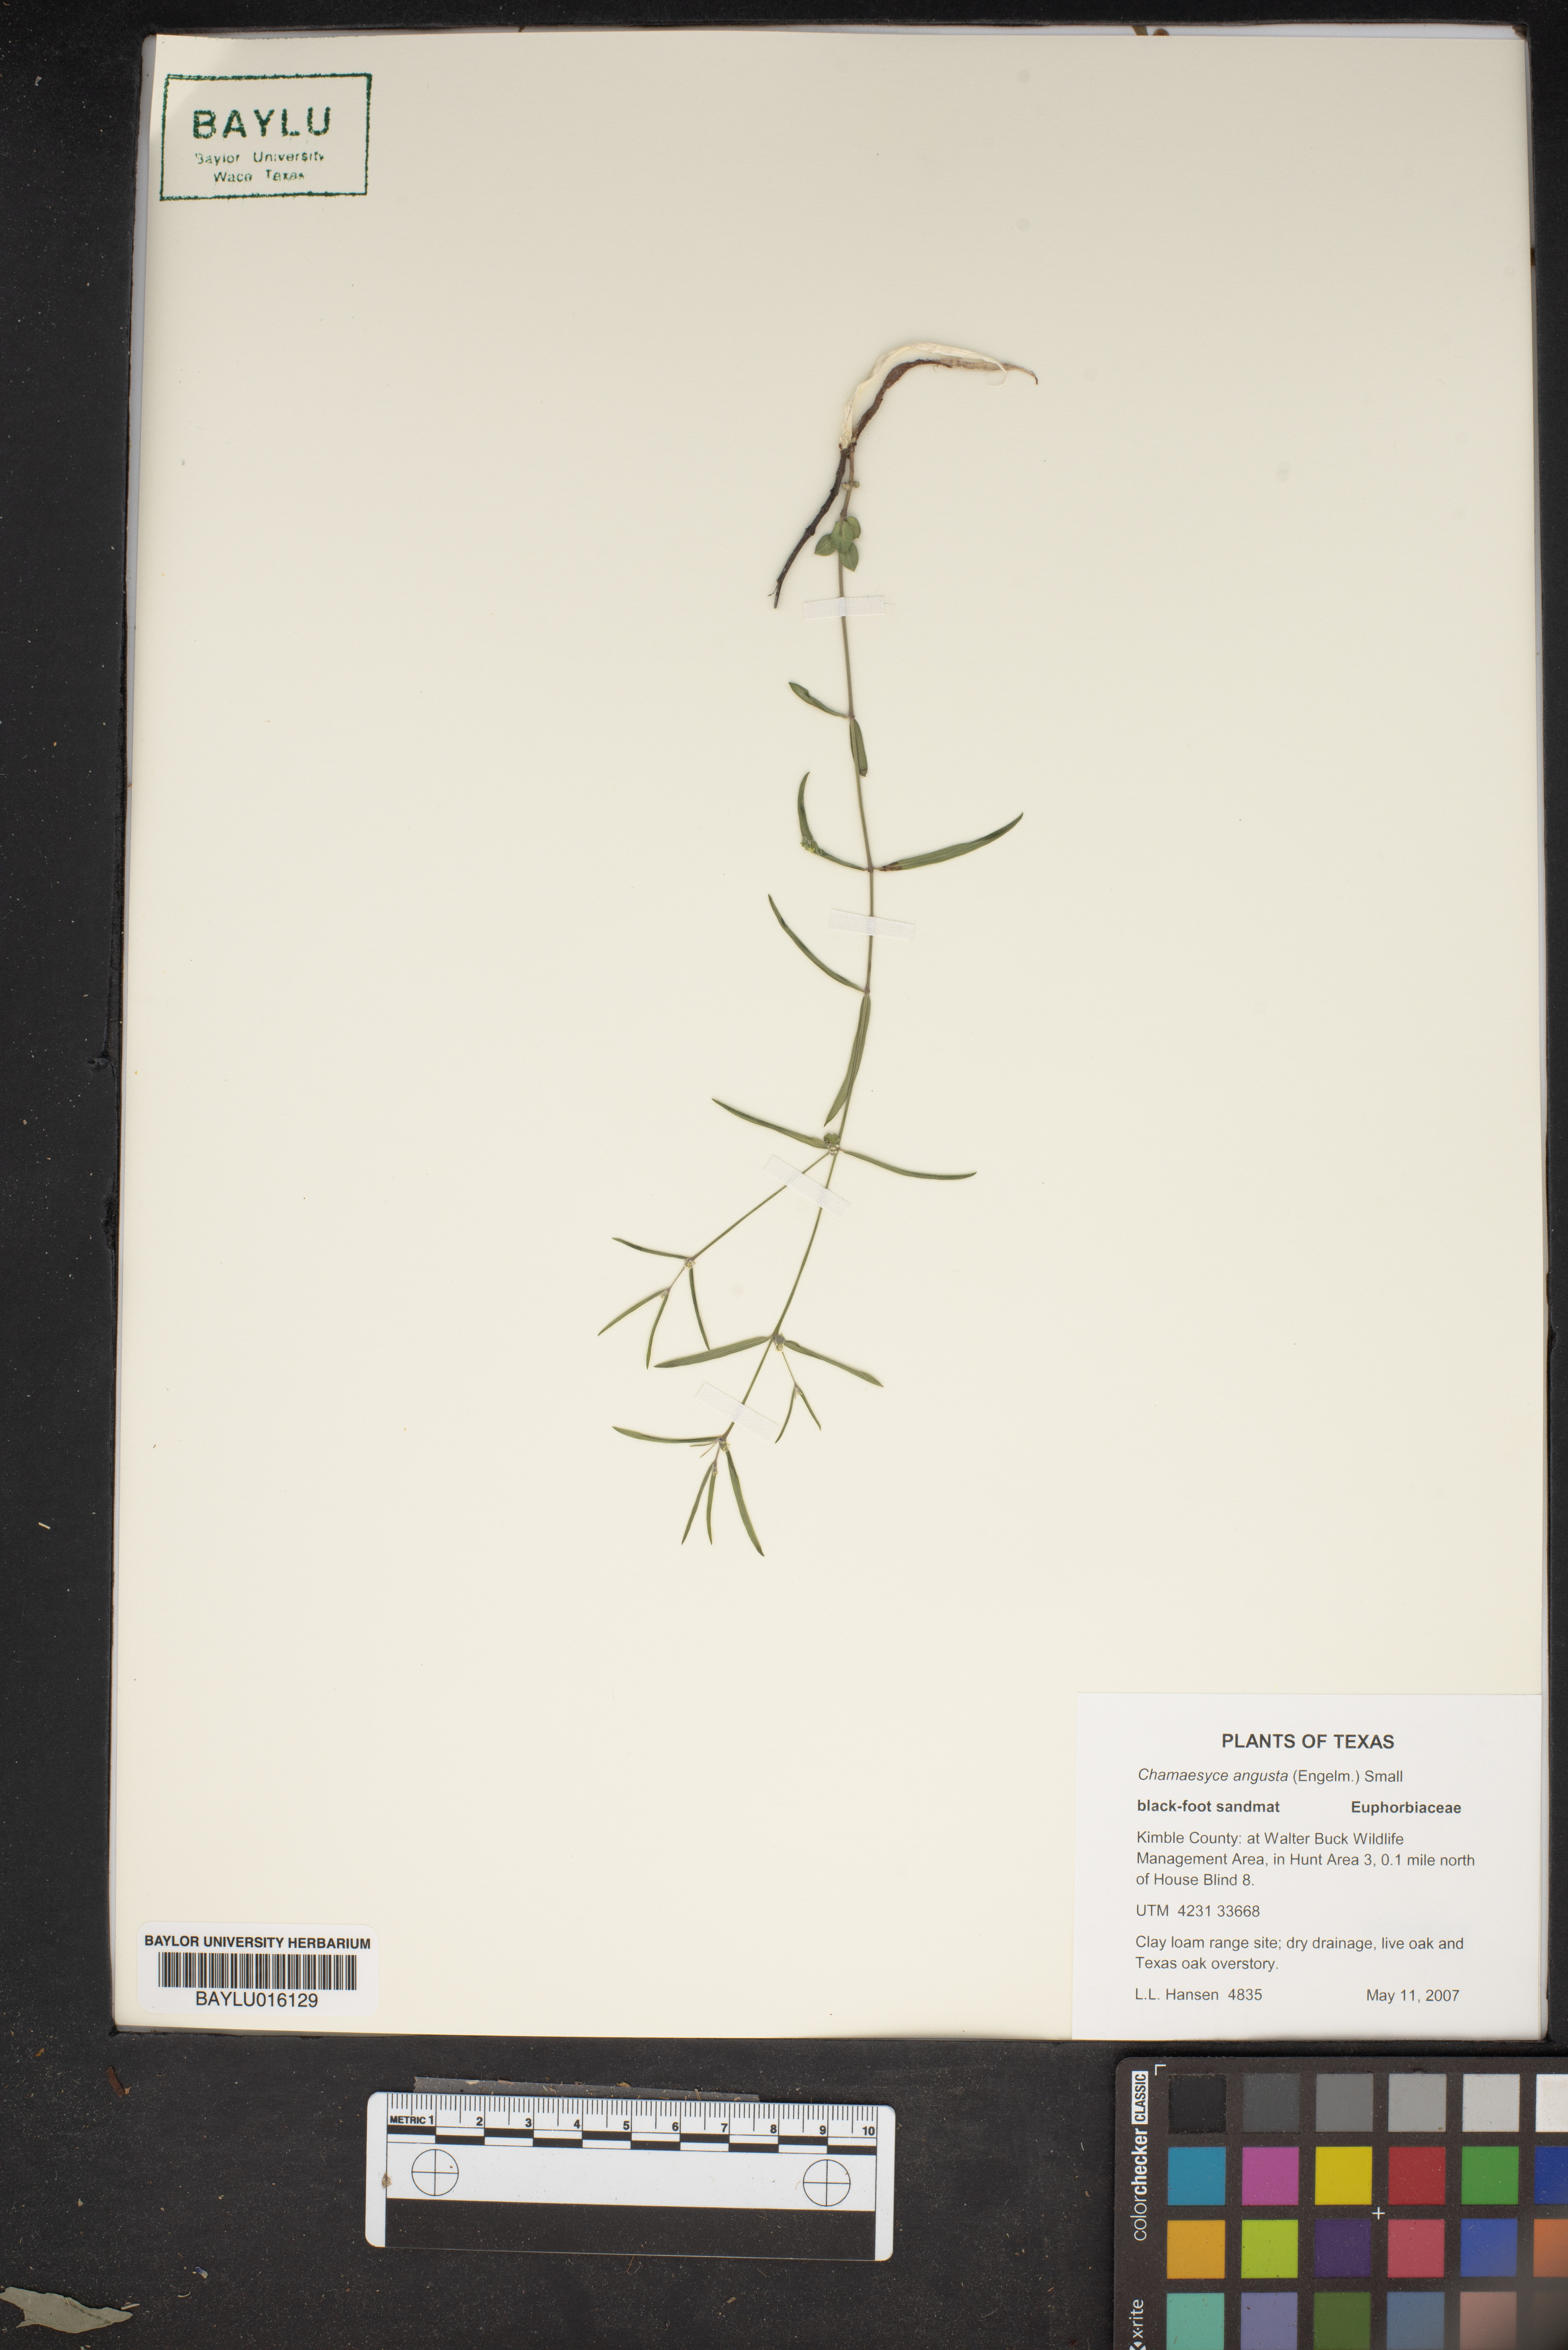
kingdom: Plantae
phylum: Tracheophyta
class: Magnoliopsida
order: Malpighiales
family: Euphorbiaceae
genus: Euphorbia
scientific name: Euphorbia angusta
